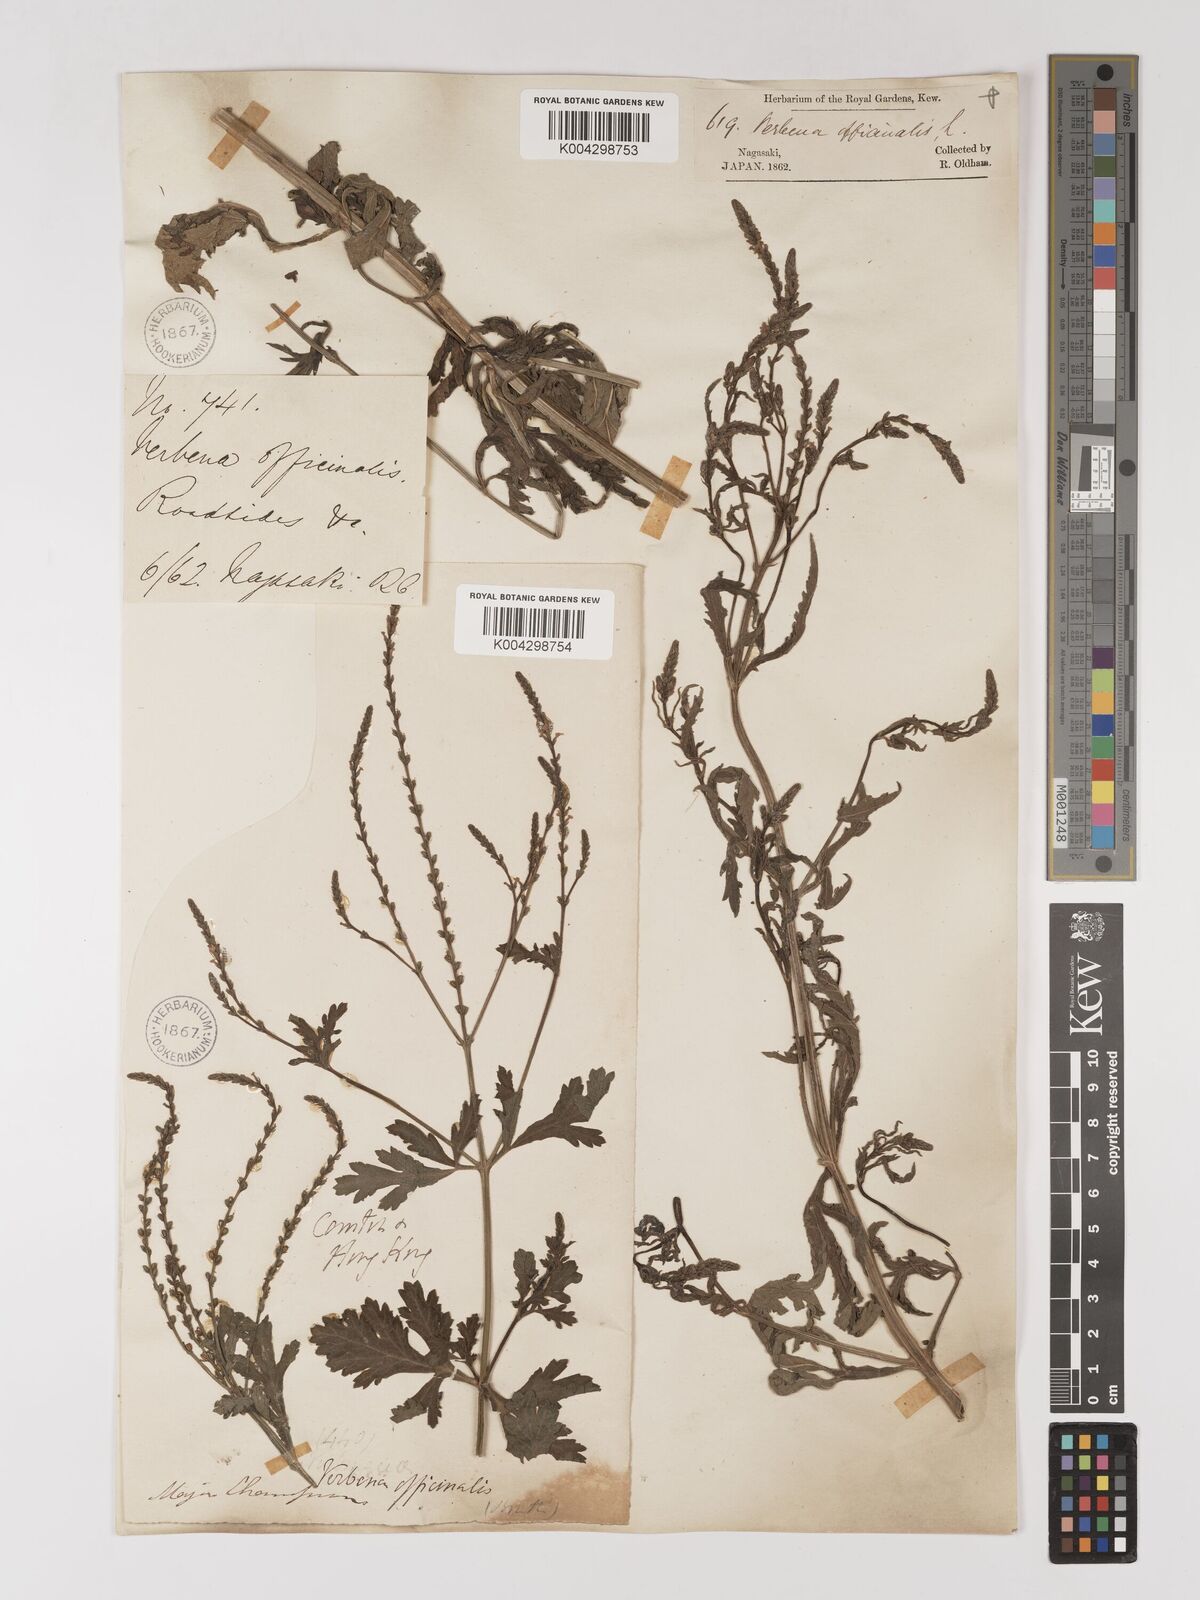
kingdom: Plantae
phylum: Tracheophyta
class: Magnoliopsida
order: Lamiales
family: Verbenaceae
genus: Verbena
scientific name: Verbena officinalis
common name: Vervain
